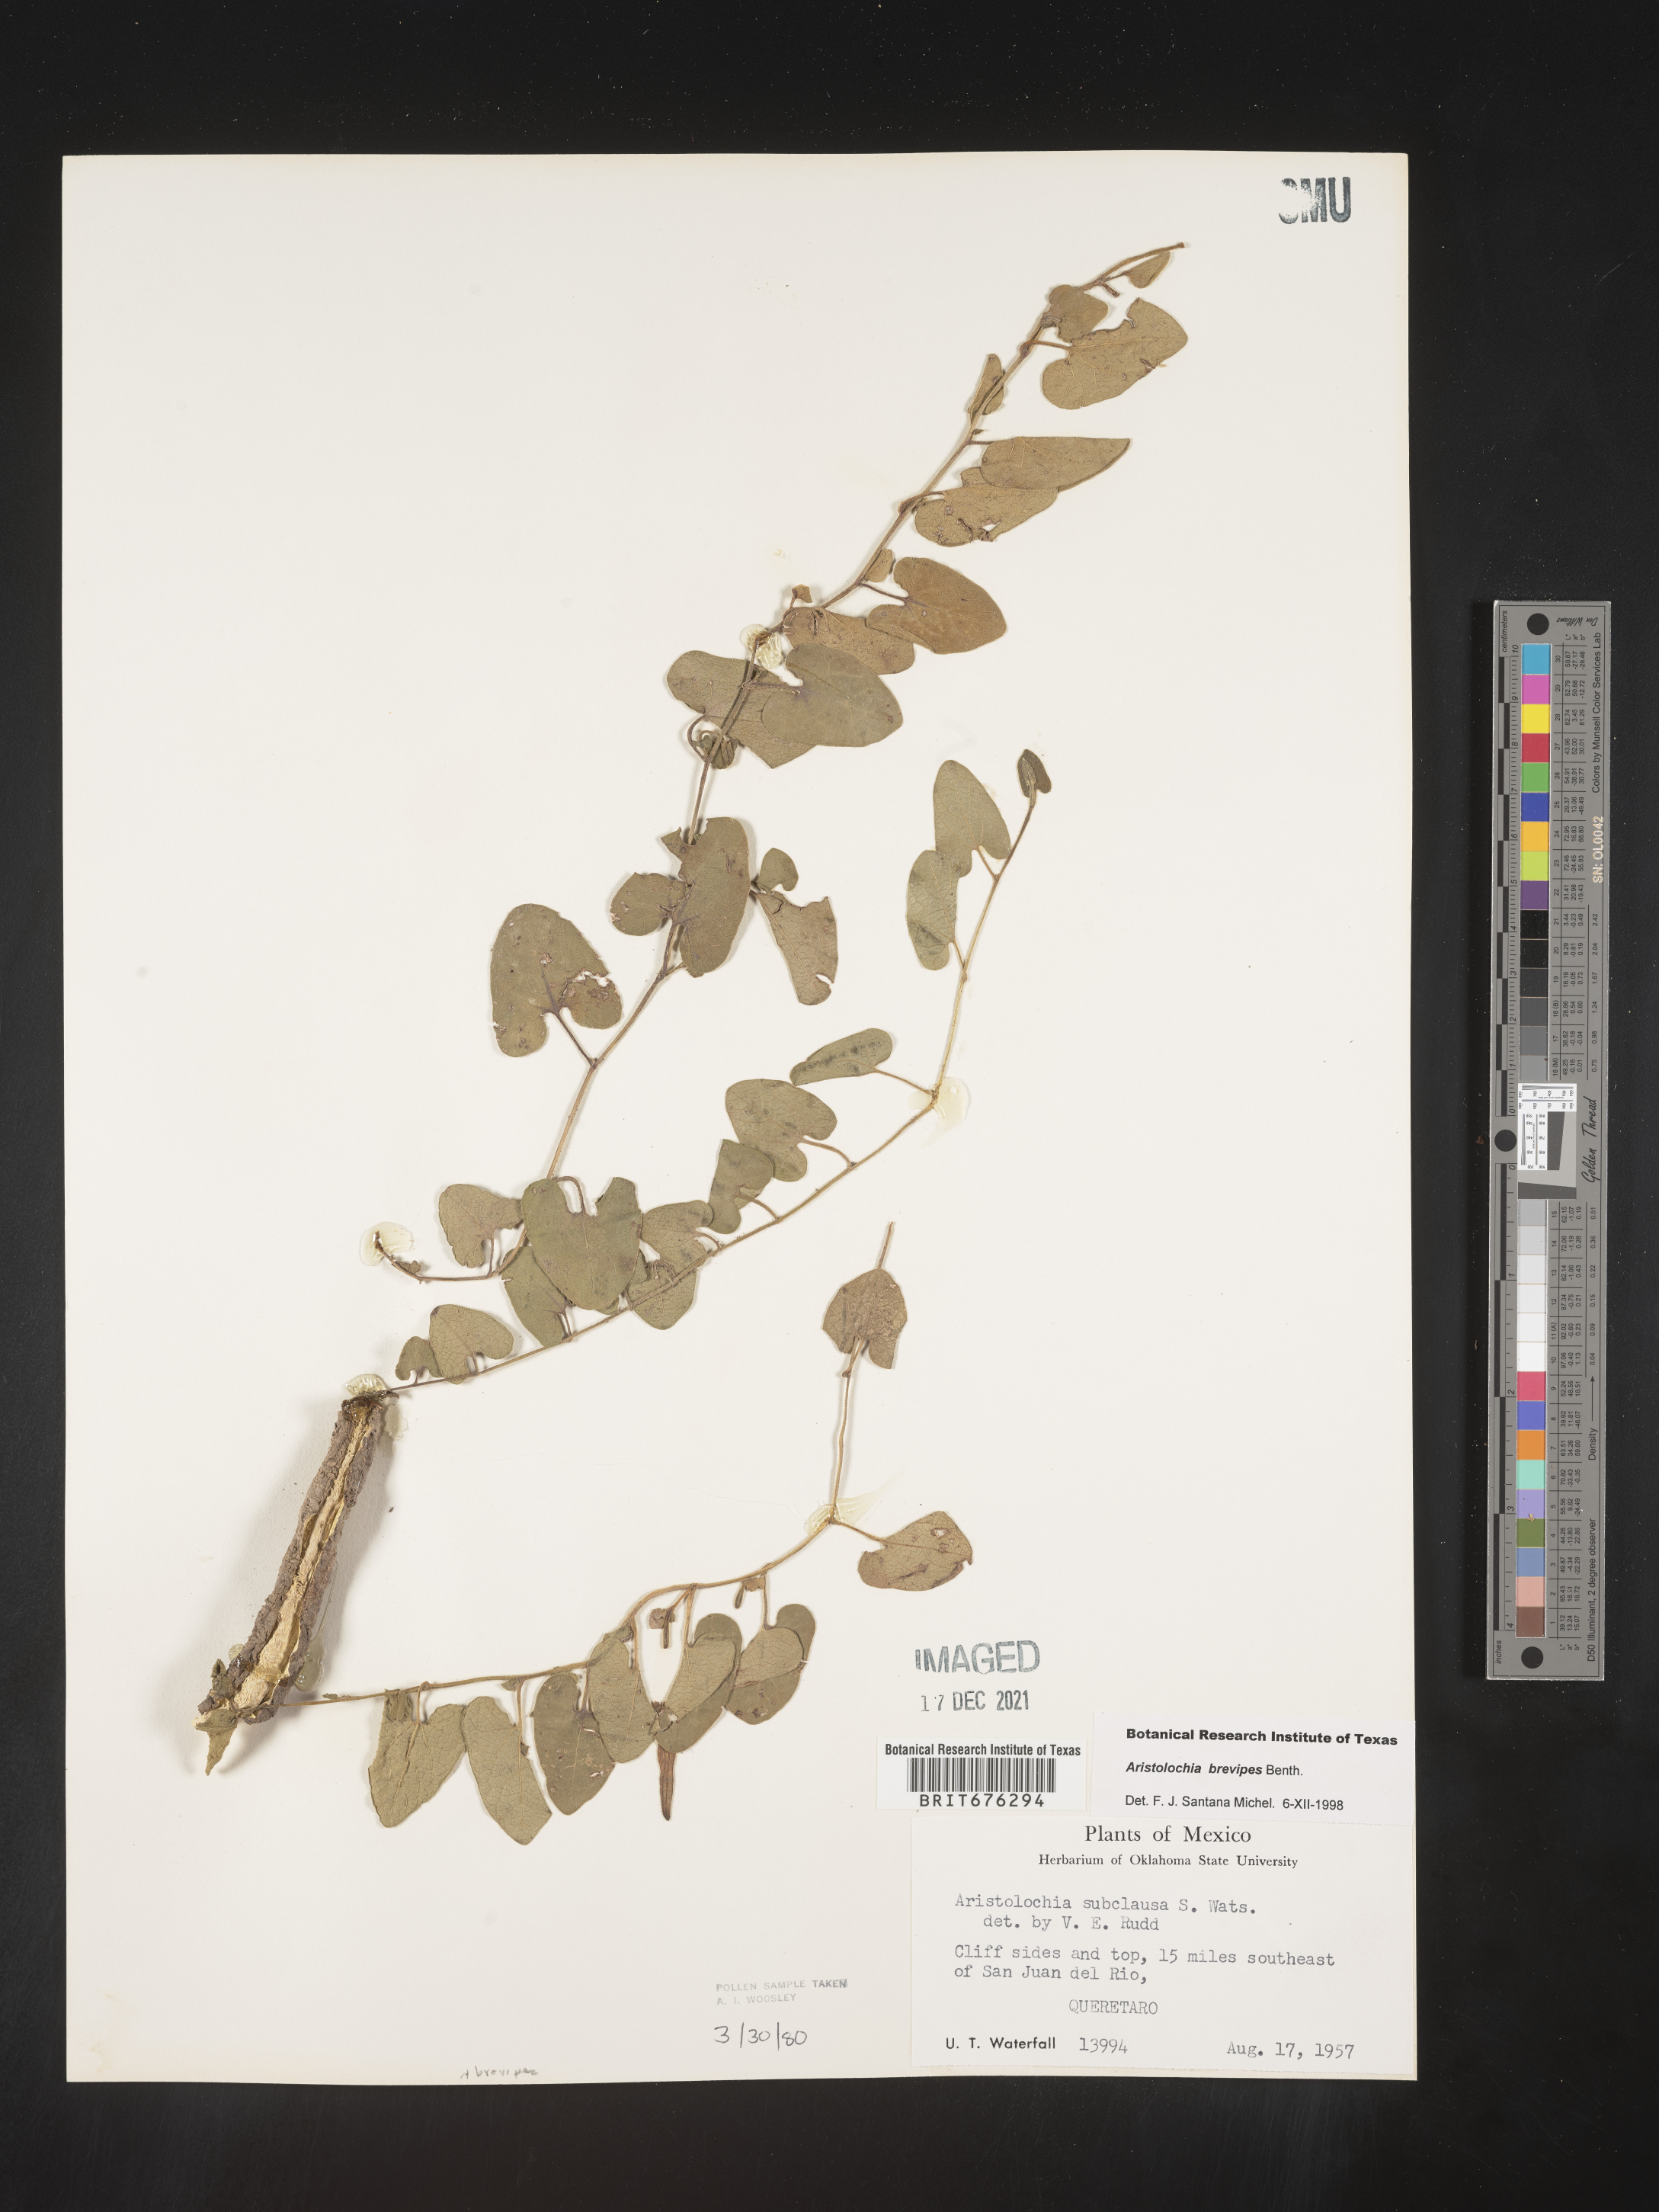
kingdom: Plantae
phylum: Tracheophyta
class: Magnoliopsida
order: Piperales
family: Aristolochiaceae
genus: Aristolochia
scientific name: Aristolochia
